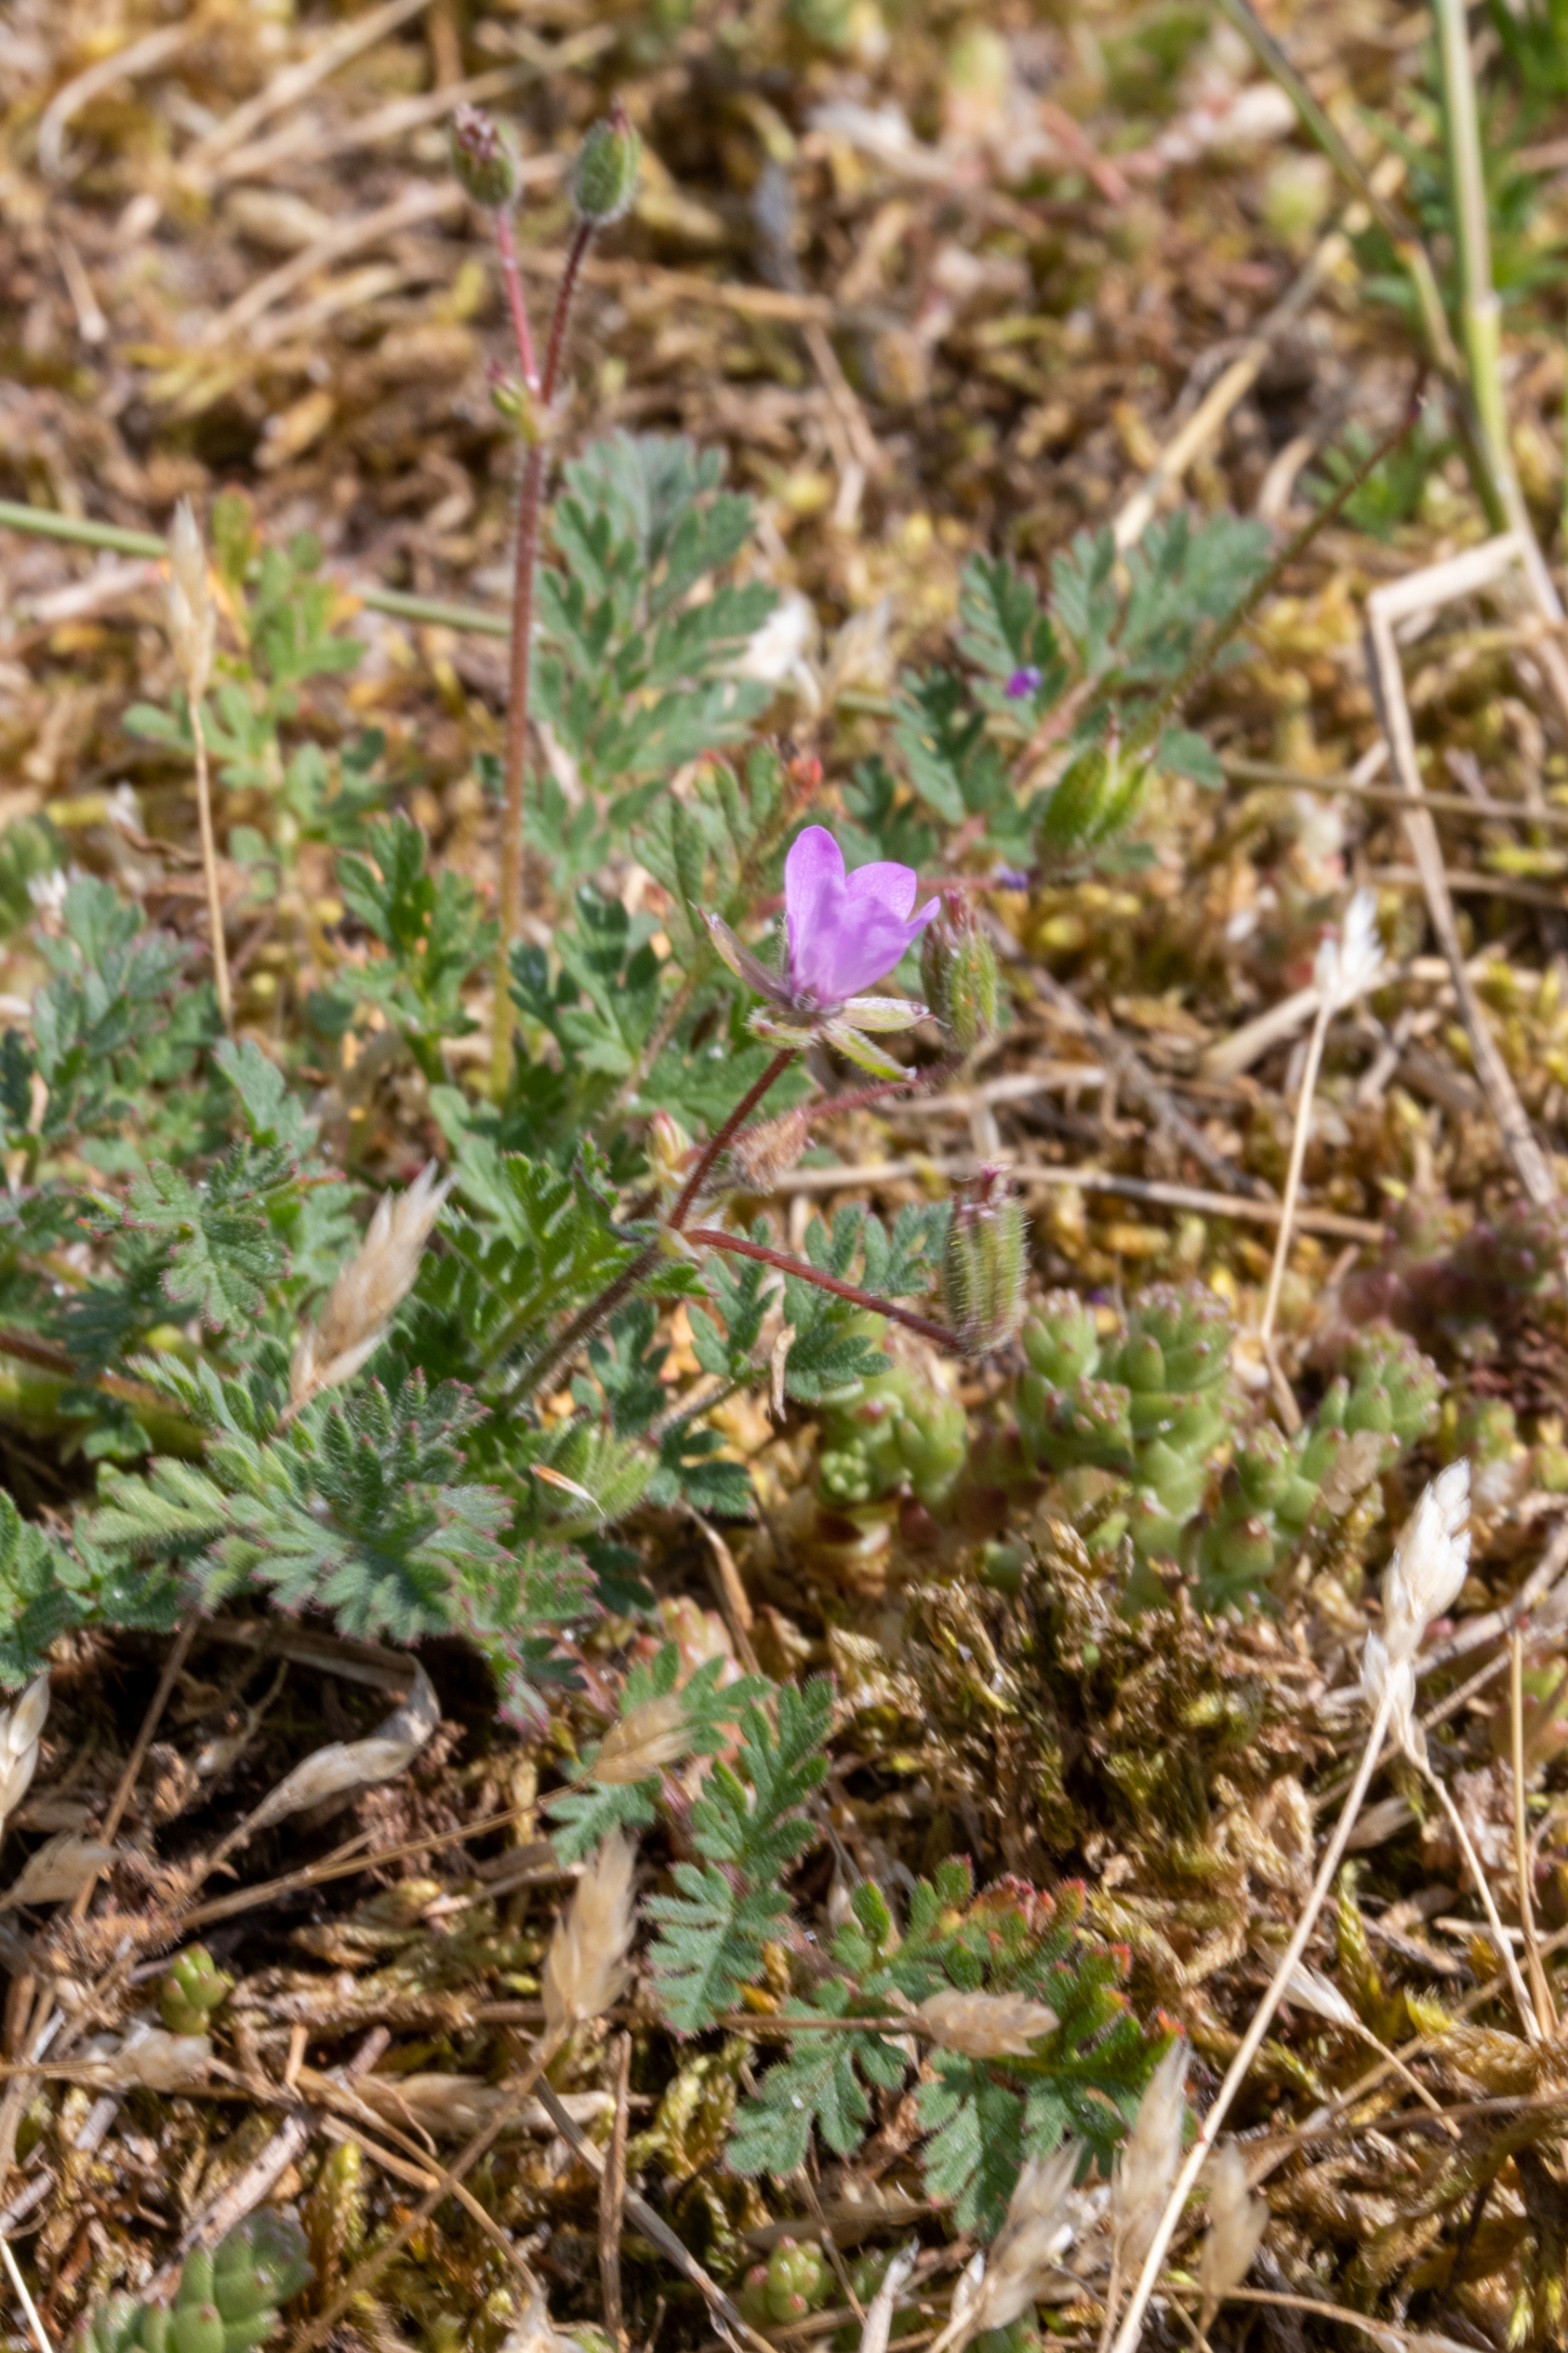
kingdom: Plantae
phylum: Tracheophyta
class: Magnoliopsida
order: Geraniales
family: Geraniaceae
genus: Erodium
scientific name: Erodium cicutarium
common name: Hejrenæb
